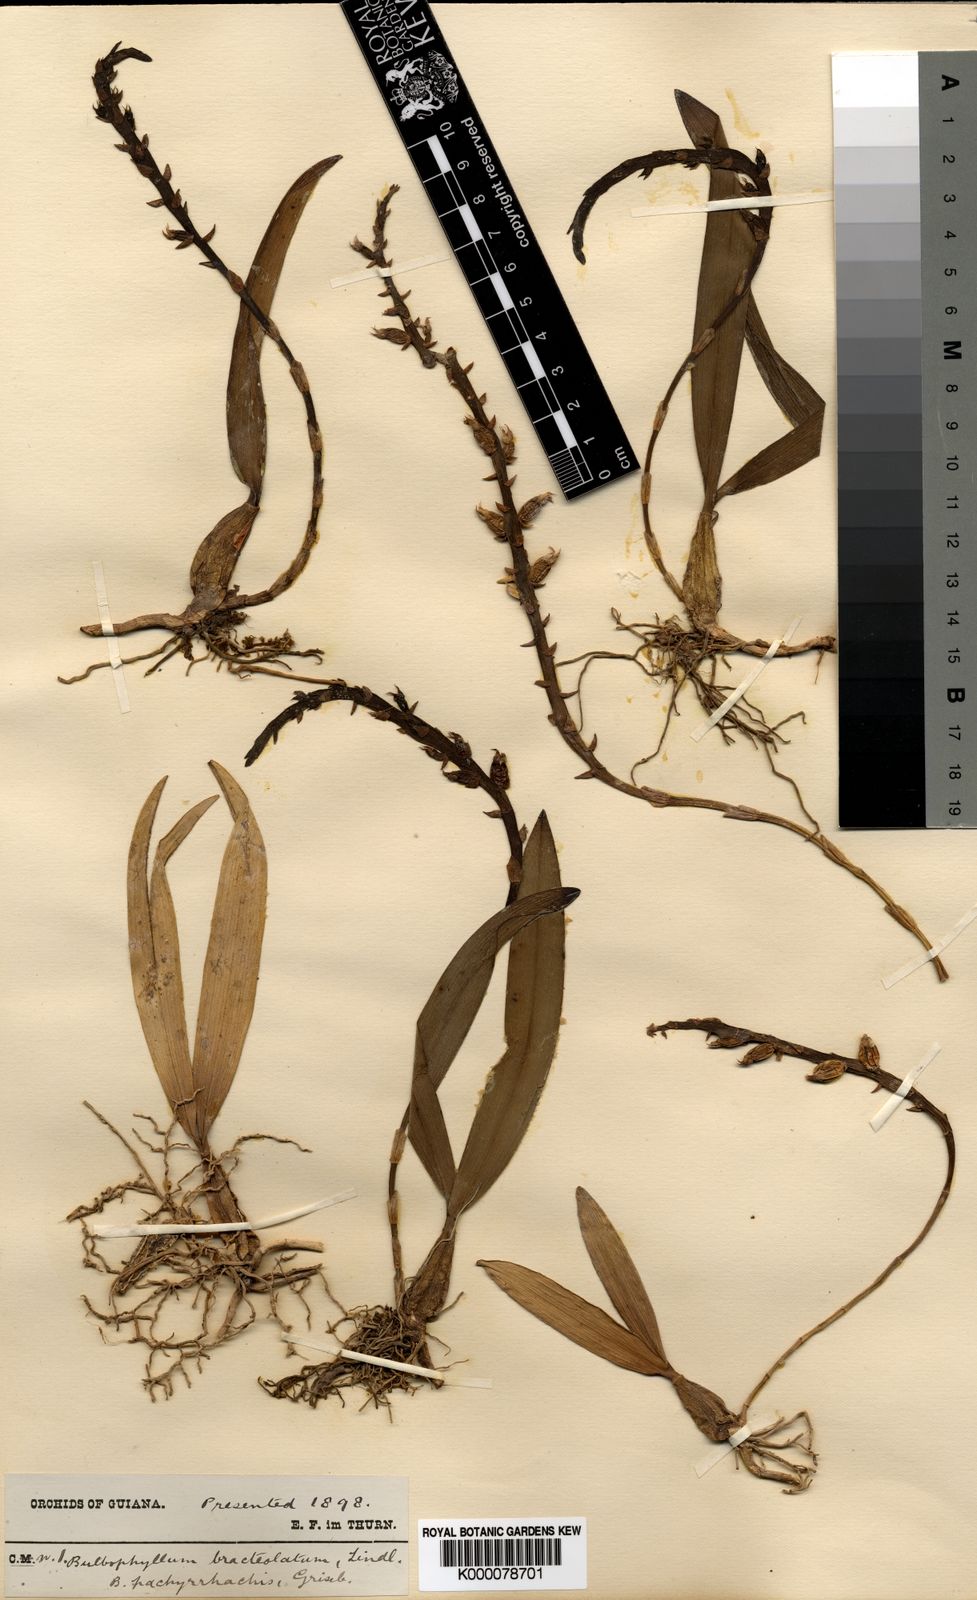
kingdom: Plantae
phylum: Tracheophyta
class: Liliopsida
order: Asparagales
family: Orchidaceae
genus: Bulbophyllum
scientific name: Bulbophyllum bracteolatum
